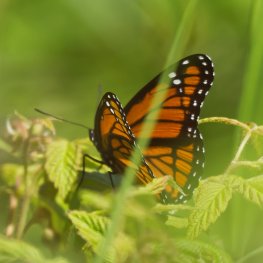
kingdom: Animalia
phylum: Arthropoda
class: Insecta
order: Lepidoptera
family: Nymphalidae
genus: Limenitis
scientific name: Limenitis archippus
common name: Viceroy
